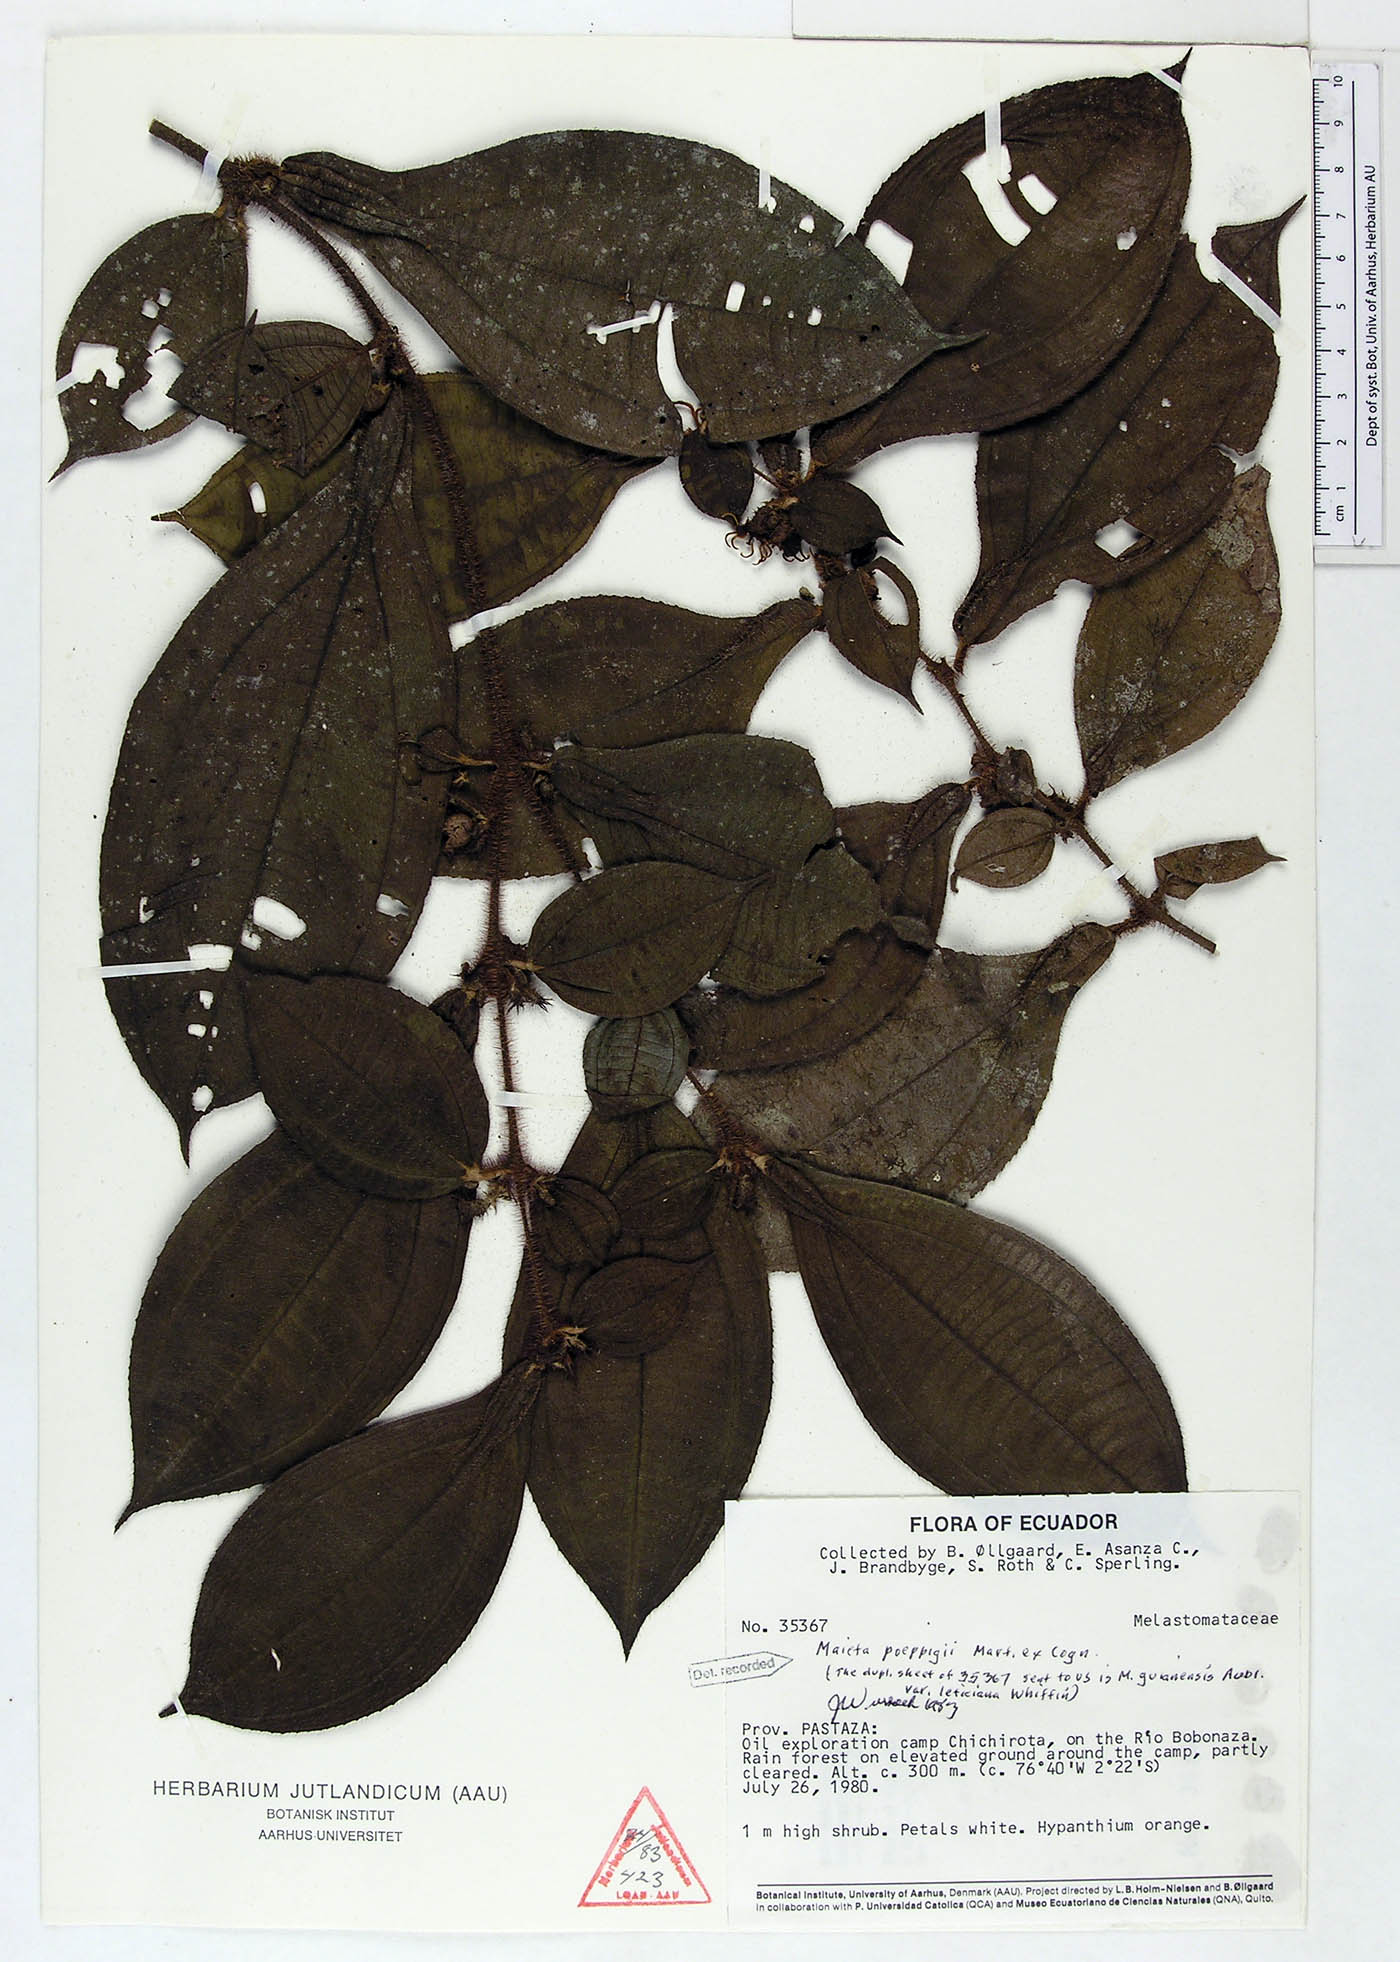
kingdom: Plantae
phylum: Tracheophyta
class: Magnoliopsida
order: Myrtales
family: Melastomataceae
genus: Miconia
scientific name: Miconia alternidomatia
